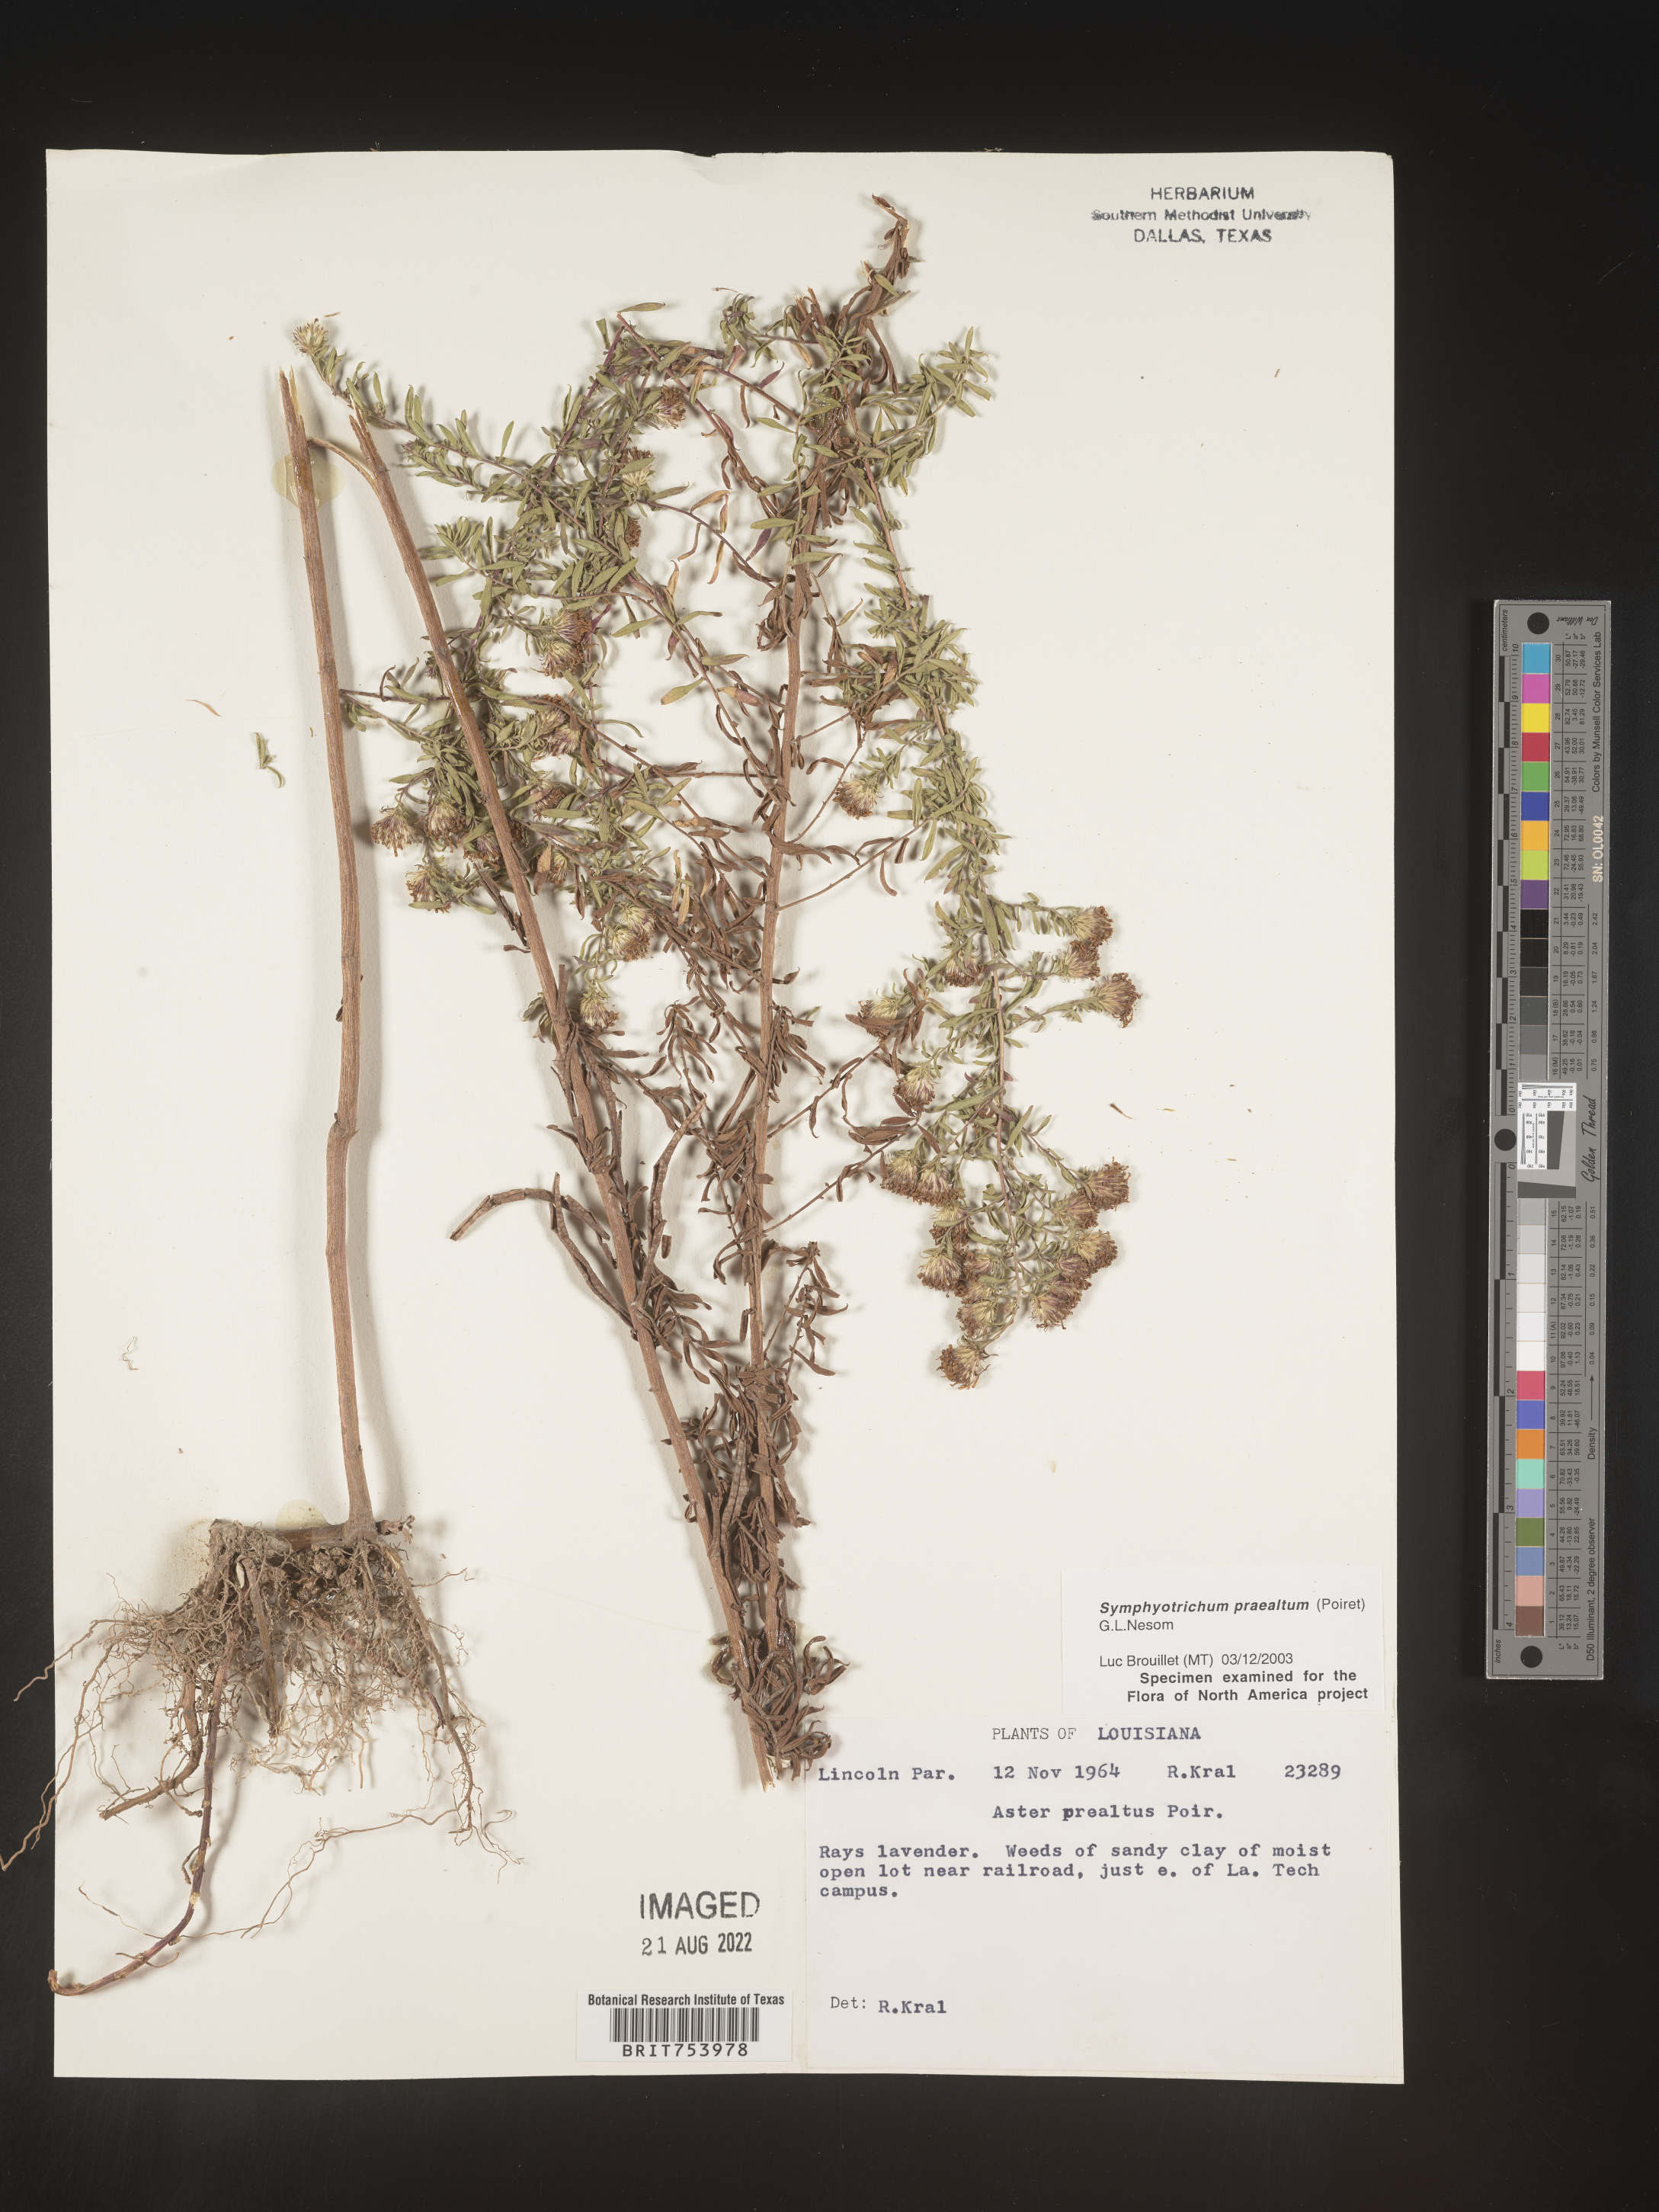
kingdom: Plantae
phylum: Tracheophyta
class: Magnoliopsida
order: Asterales
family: Asteraceae
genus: Symphyotrichum
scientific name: Symphyotrichum praealtum
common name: Willow aster
